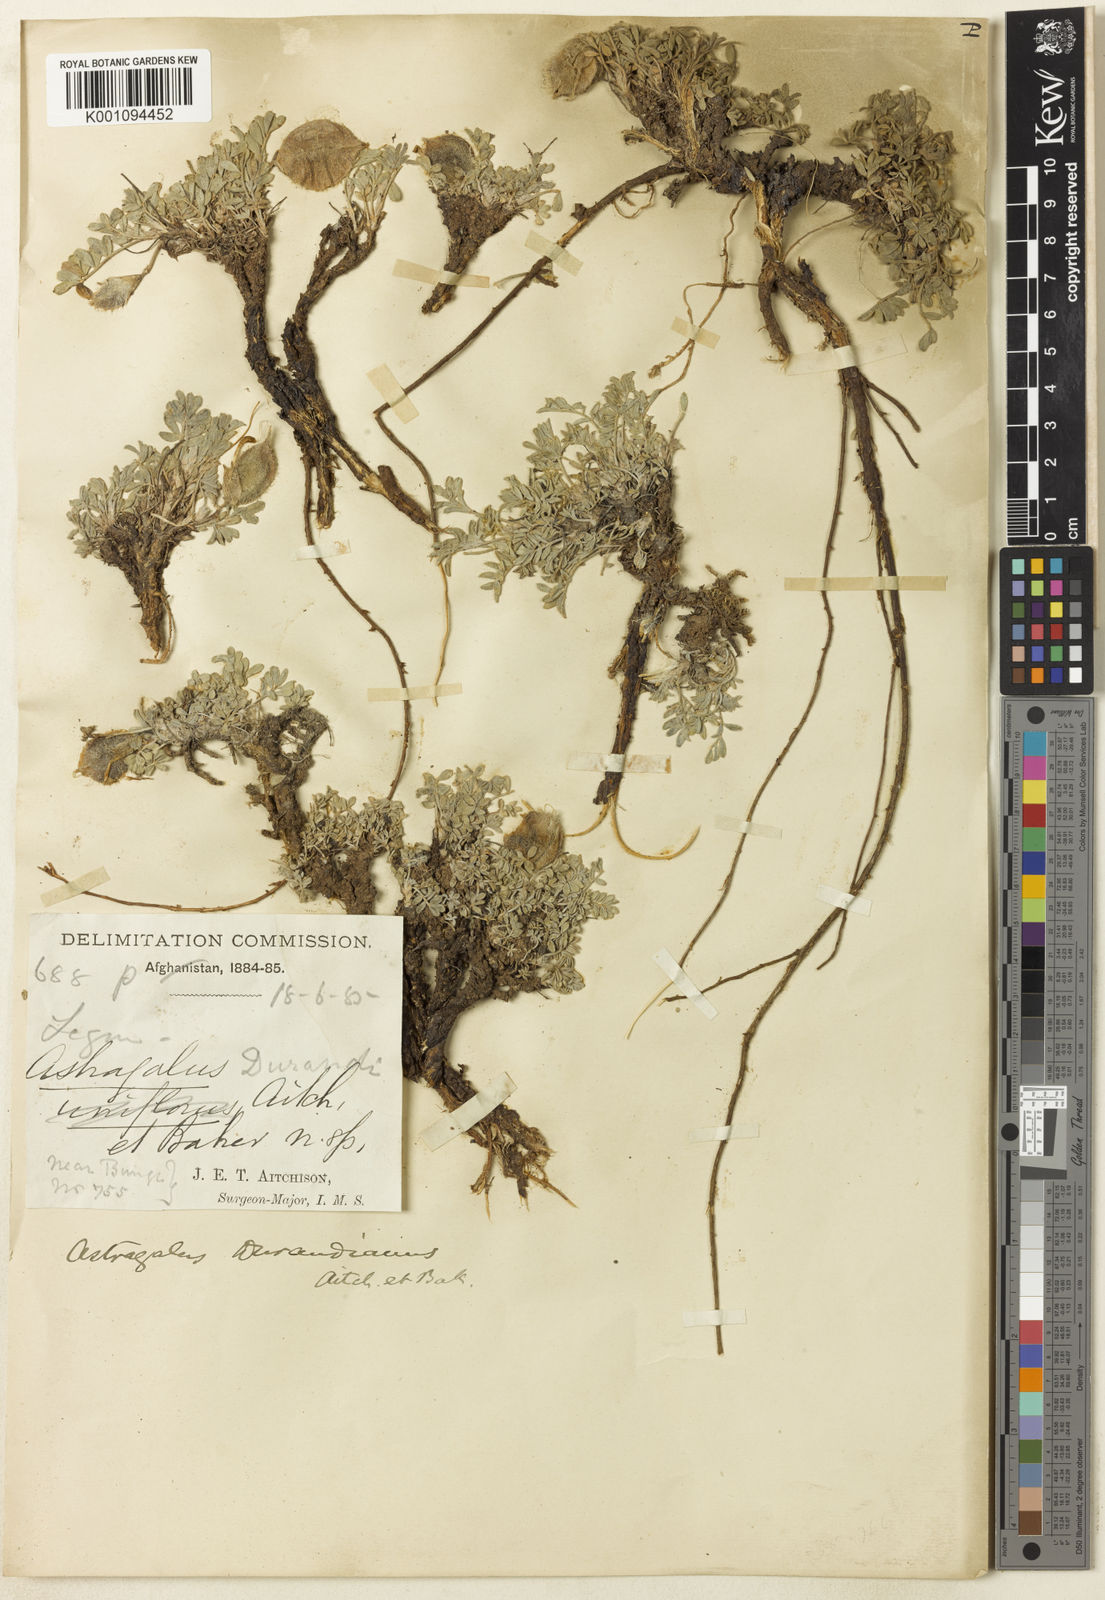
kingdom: Plantae
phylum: Tracheophyta
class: Magnoliopsida
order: Fabales
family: Fabaceae
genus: Astragalus
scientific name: Astragalus
